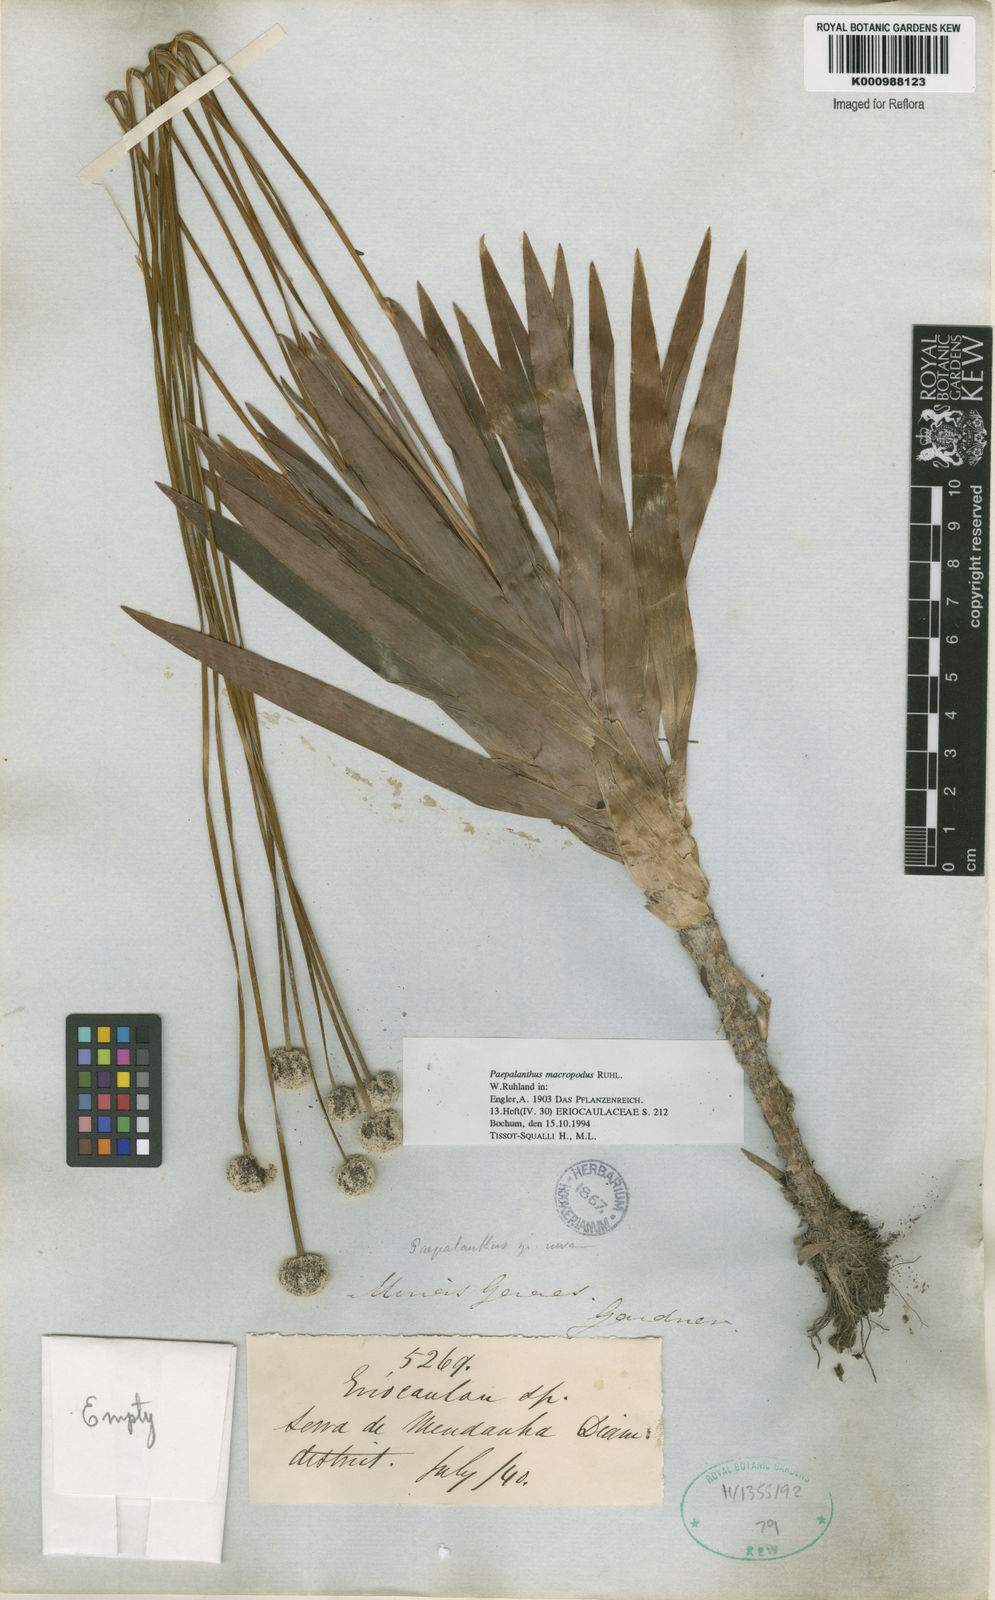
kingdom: Plantae
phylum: Tracheophyta
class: Liliopsida
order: Poales
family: Eriocaulaceae
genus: Paepalanthus
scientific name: Paepalanthus macropodus
